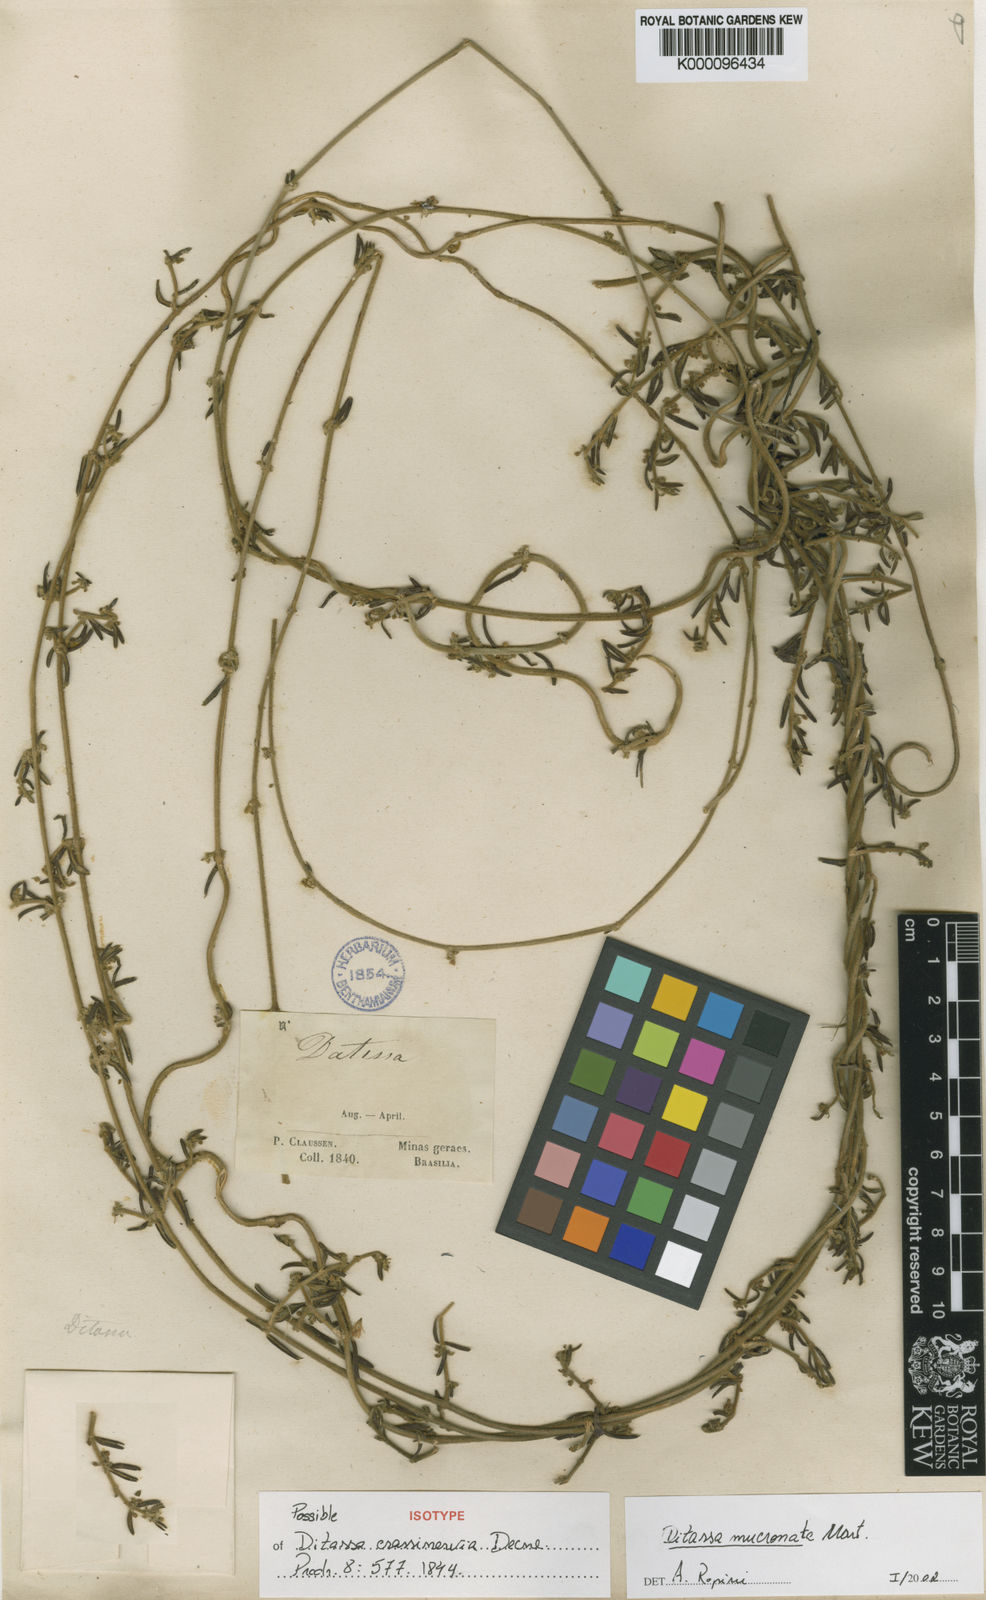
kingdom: Plantae
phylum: Tracheophyta
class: Magnoliopsida
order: Gentianales
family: Apocynaceae
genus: Ditassa
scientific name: Ditassa mucronata
